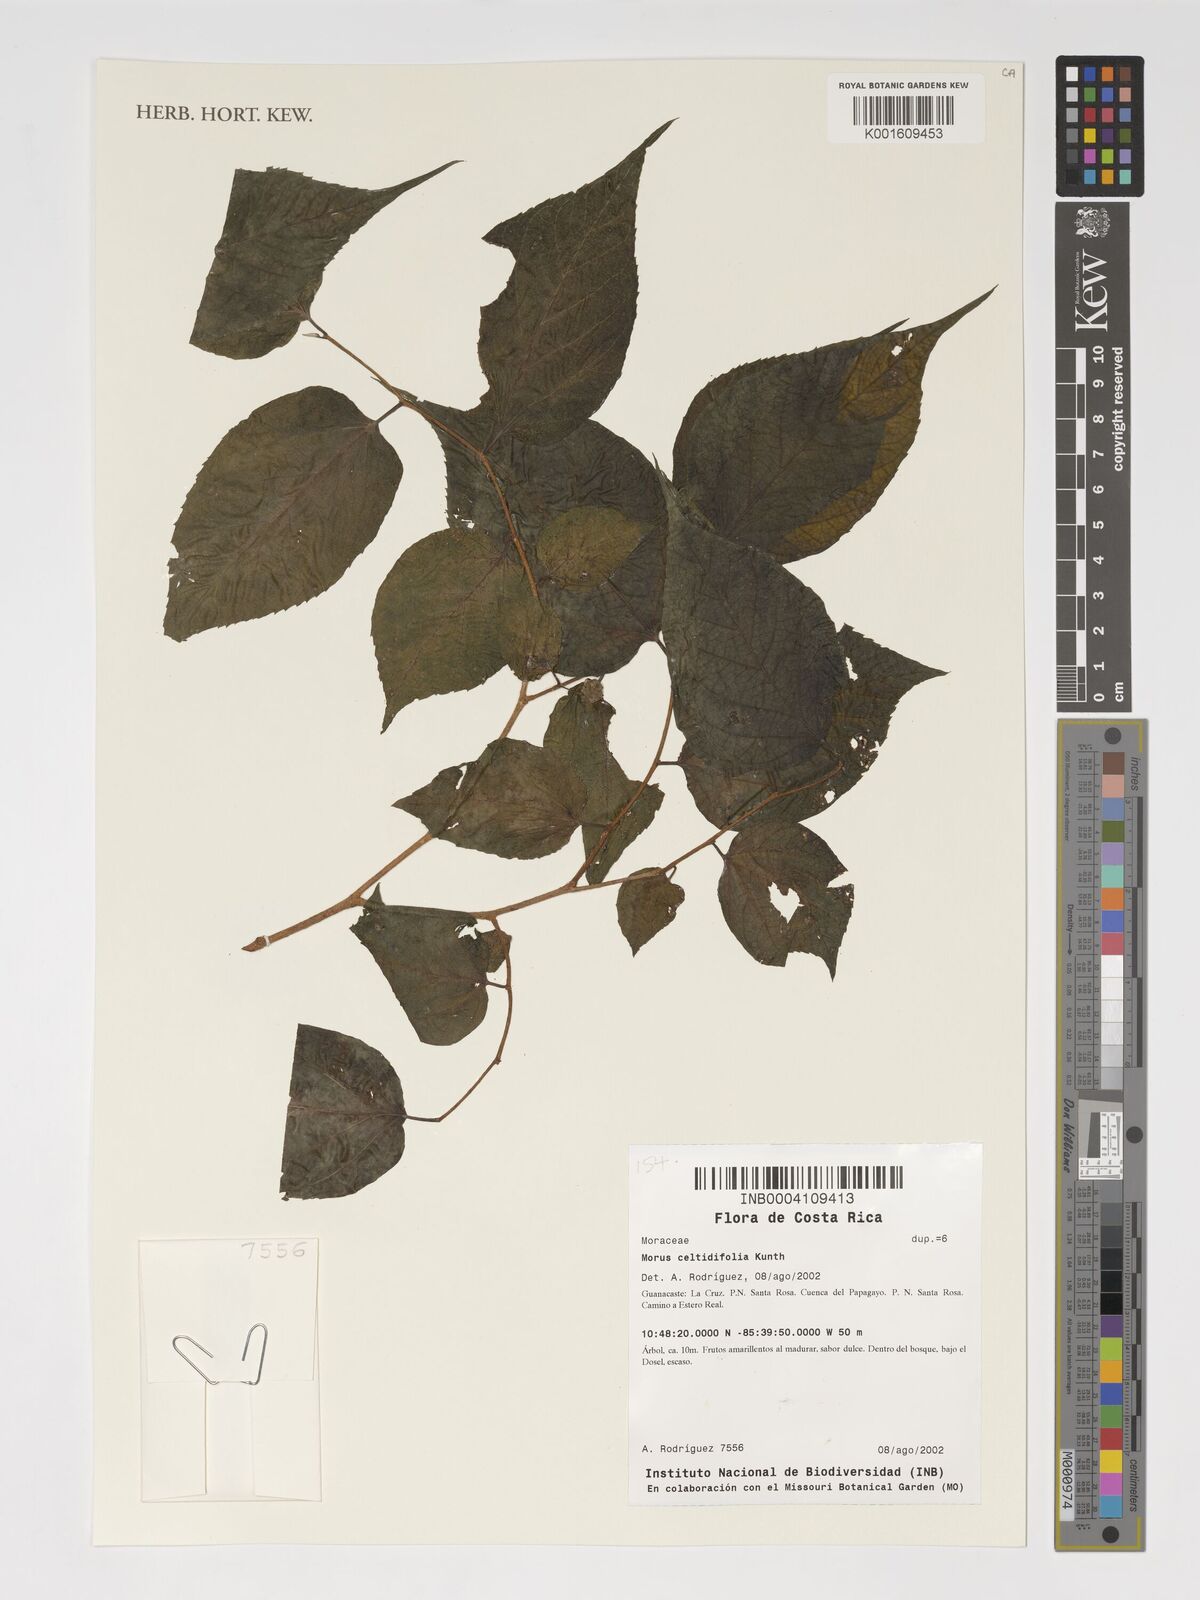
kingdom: Plantae
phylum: Tracheophyta
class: Magnoliopsida
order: Rosales
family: Moraceae
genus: Morus
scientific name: Morus celtidifolia
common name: Texas mulberry
